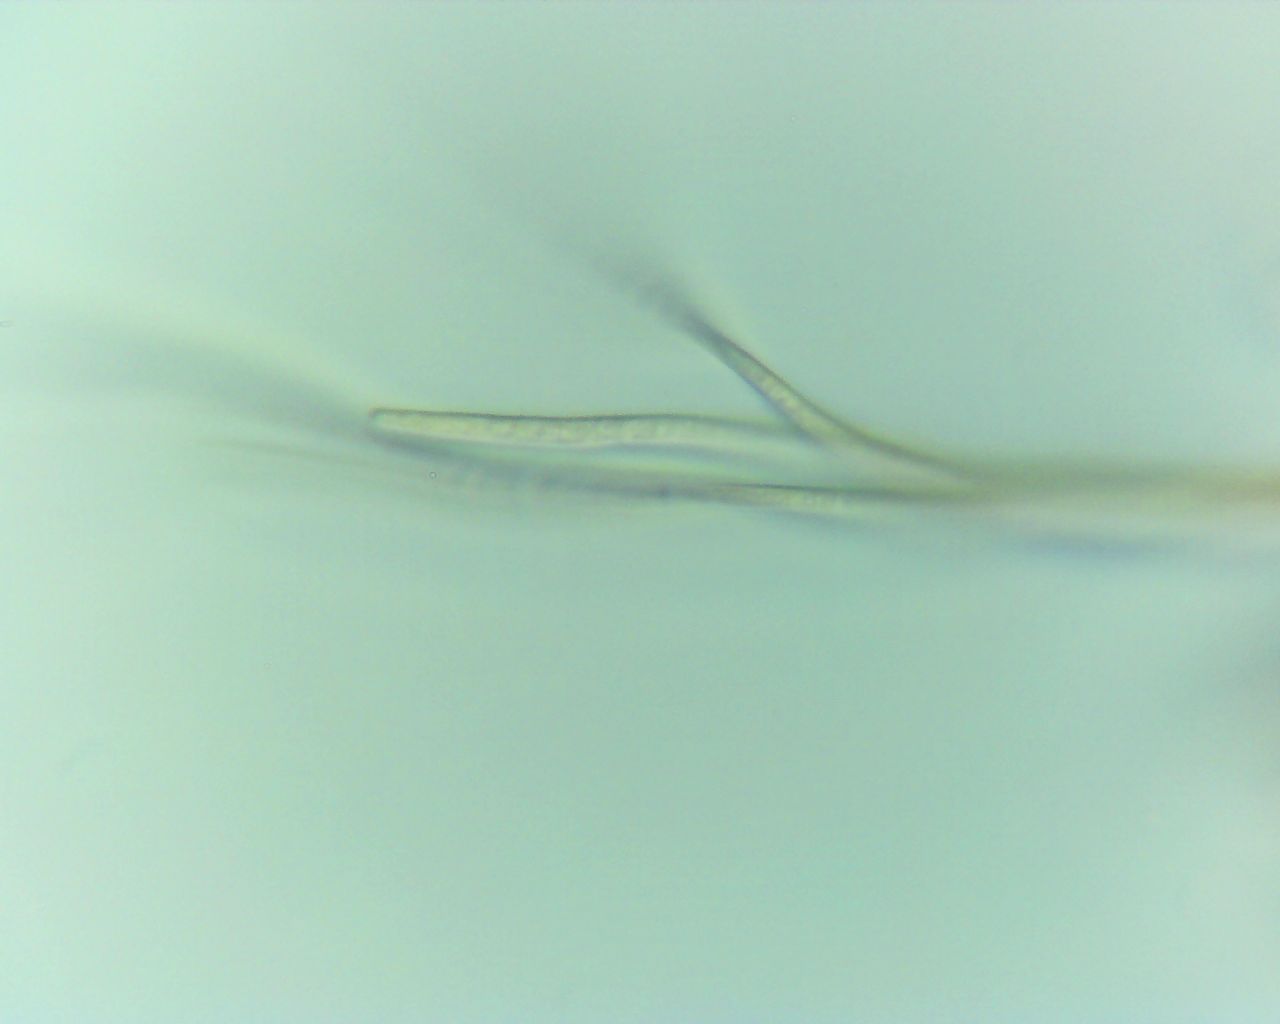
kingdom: Fungi
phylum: Ascomycota
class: Dothideomycetes
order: Mytilinidiales
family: Mytilinidiaceae
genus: Mytilinidion
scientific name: Mytilinidion rhenanum
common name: almindelig kulmusling
